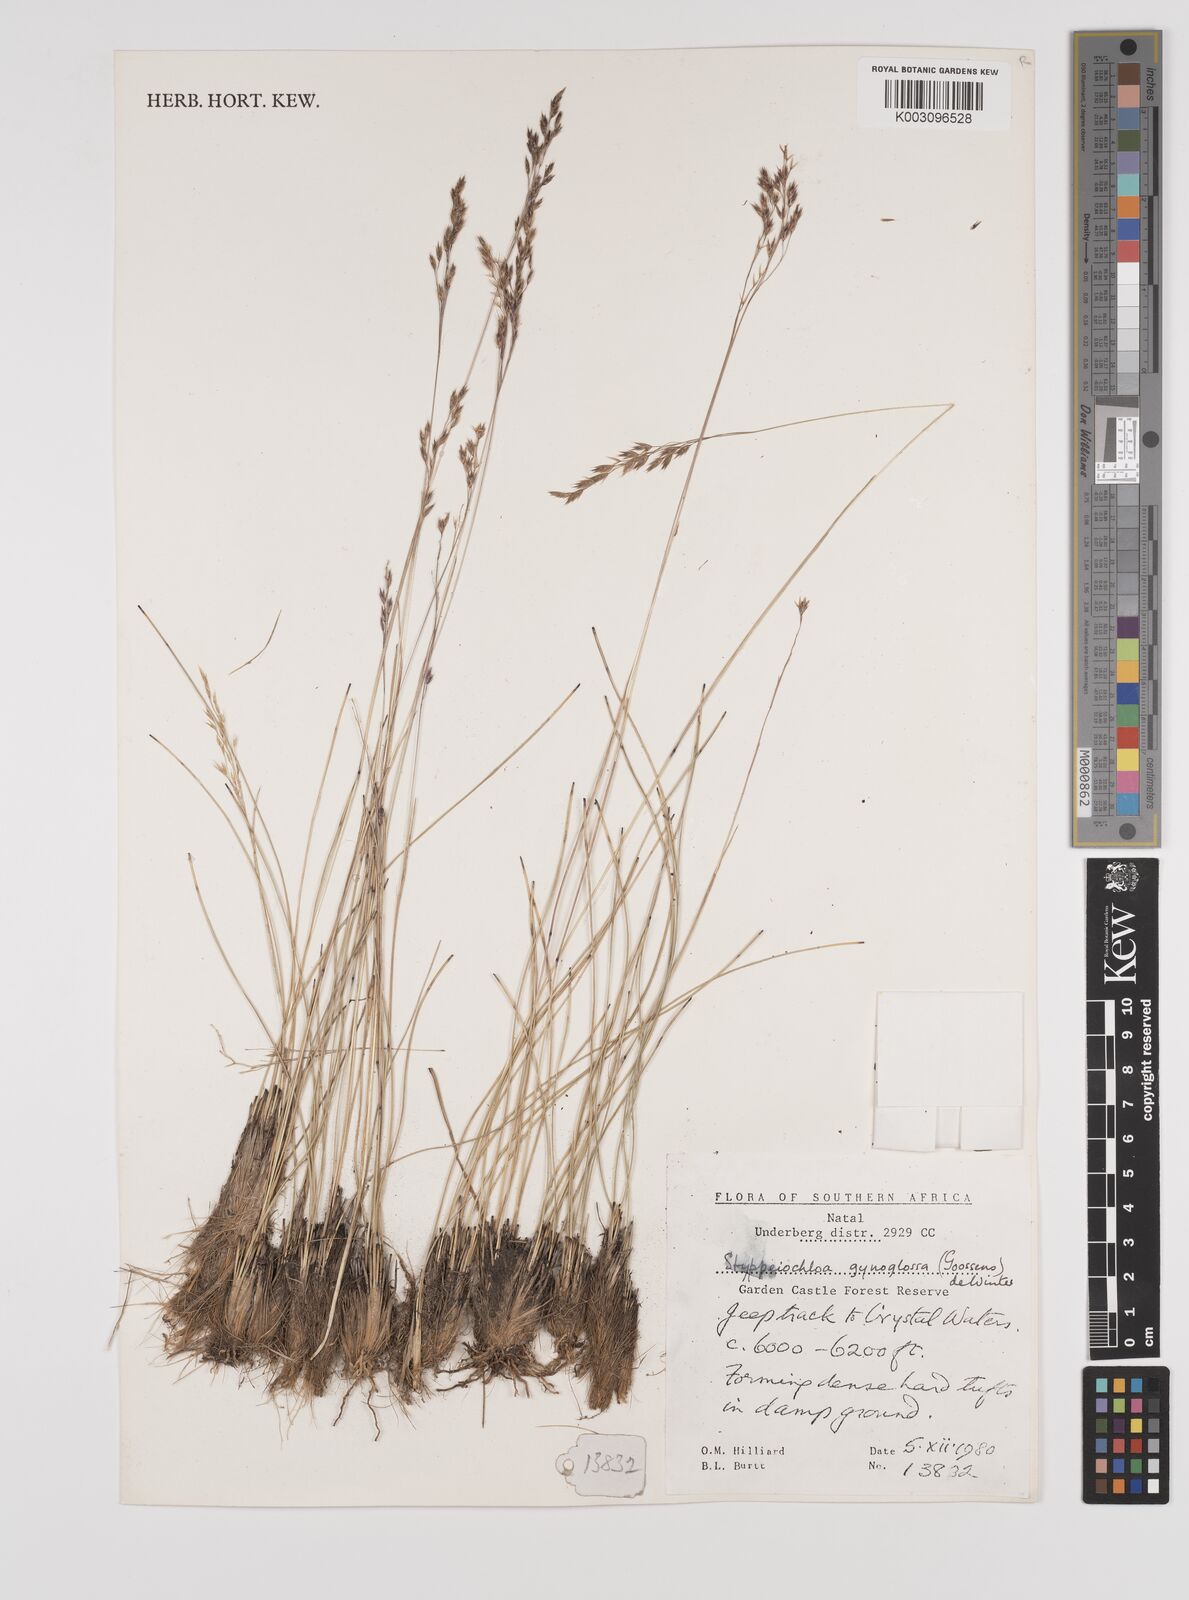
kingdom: Plantae
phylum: Tracheophyta
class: Liliopsida
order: Poales
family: Poaceae
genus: Styppeiochloa
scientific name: Styppeiochloa gynoglossa
